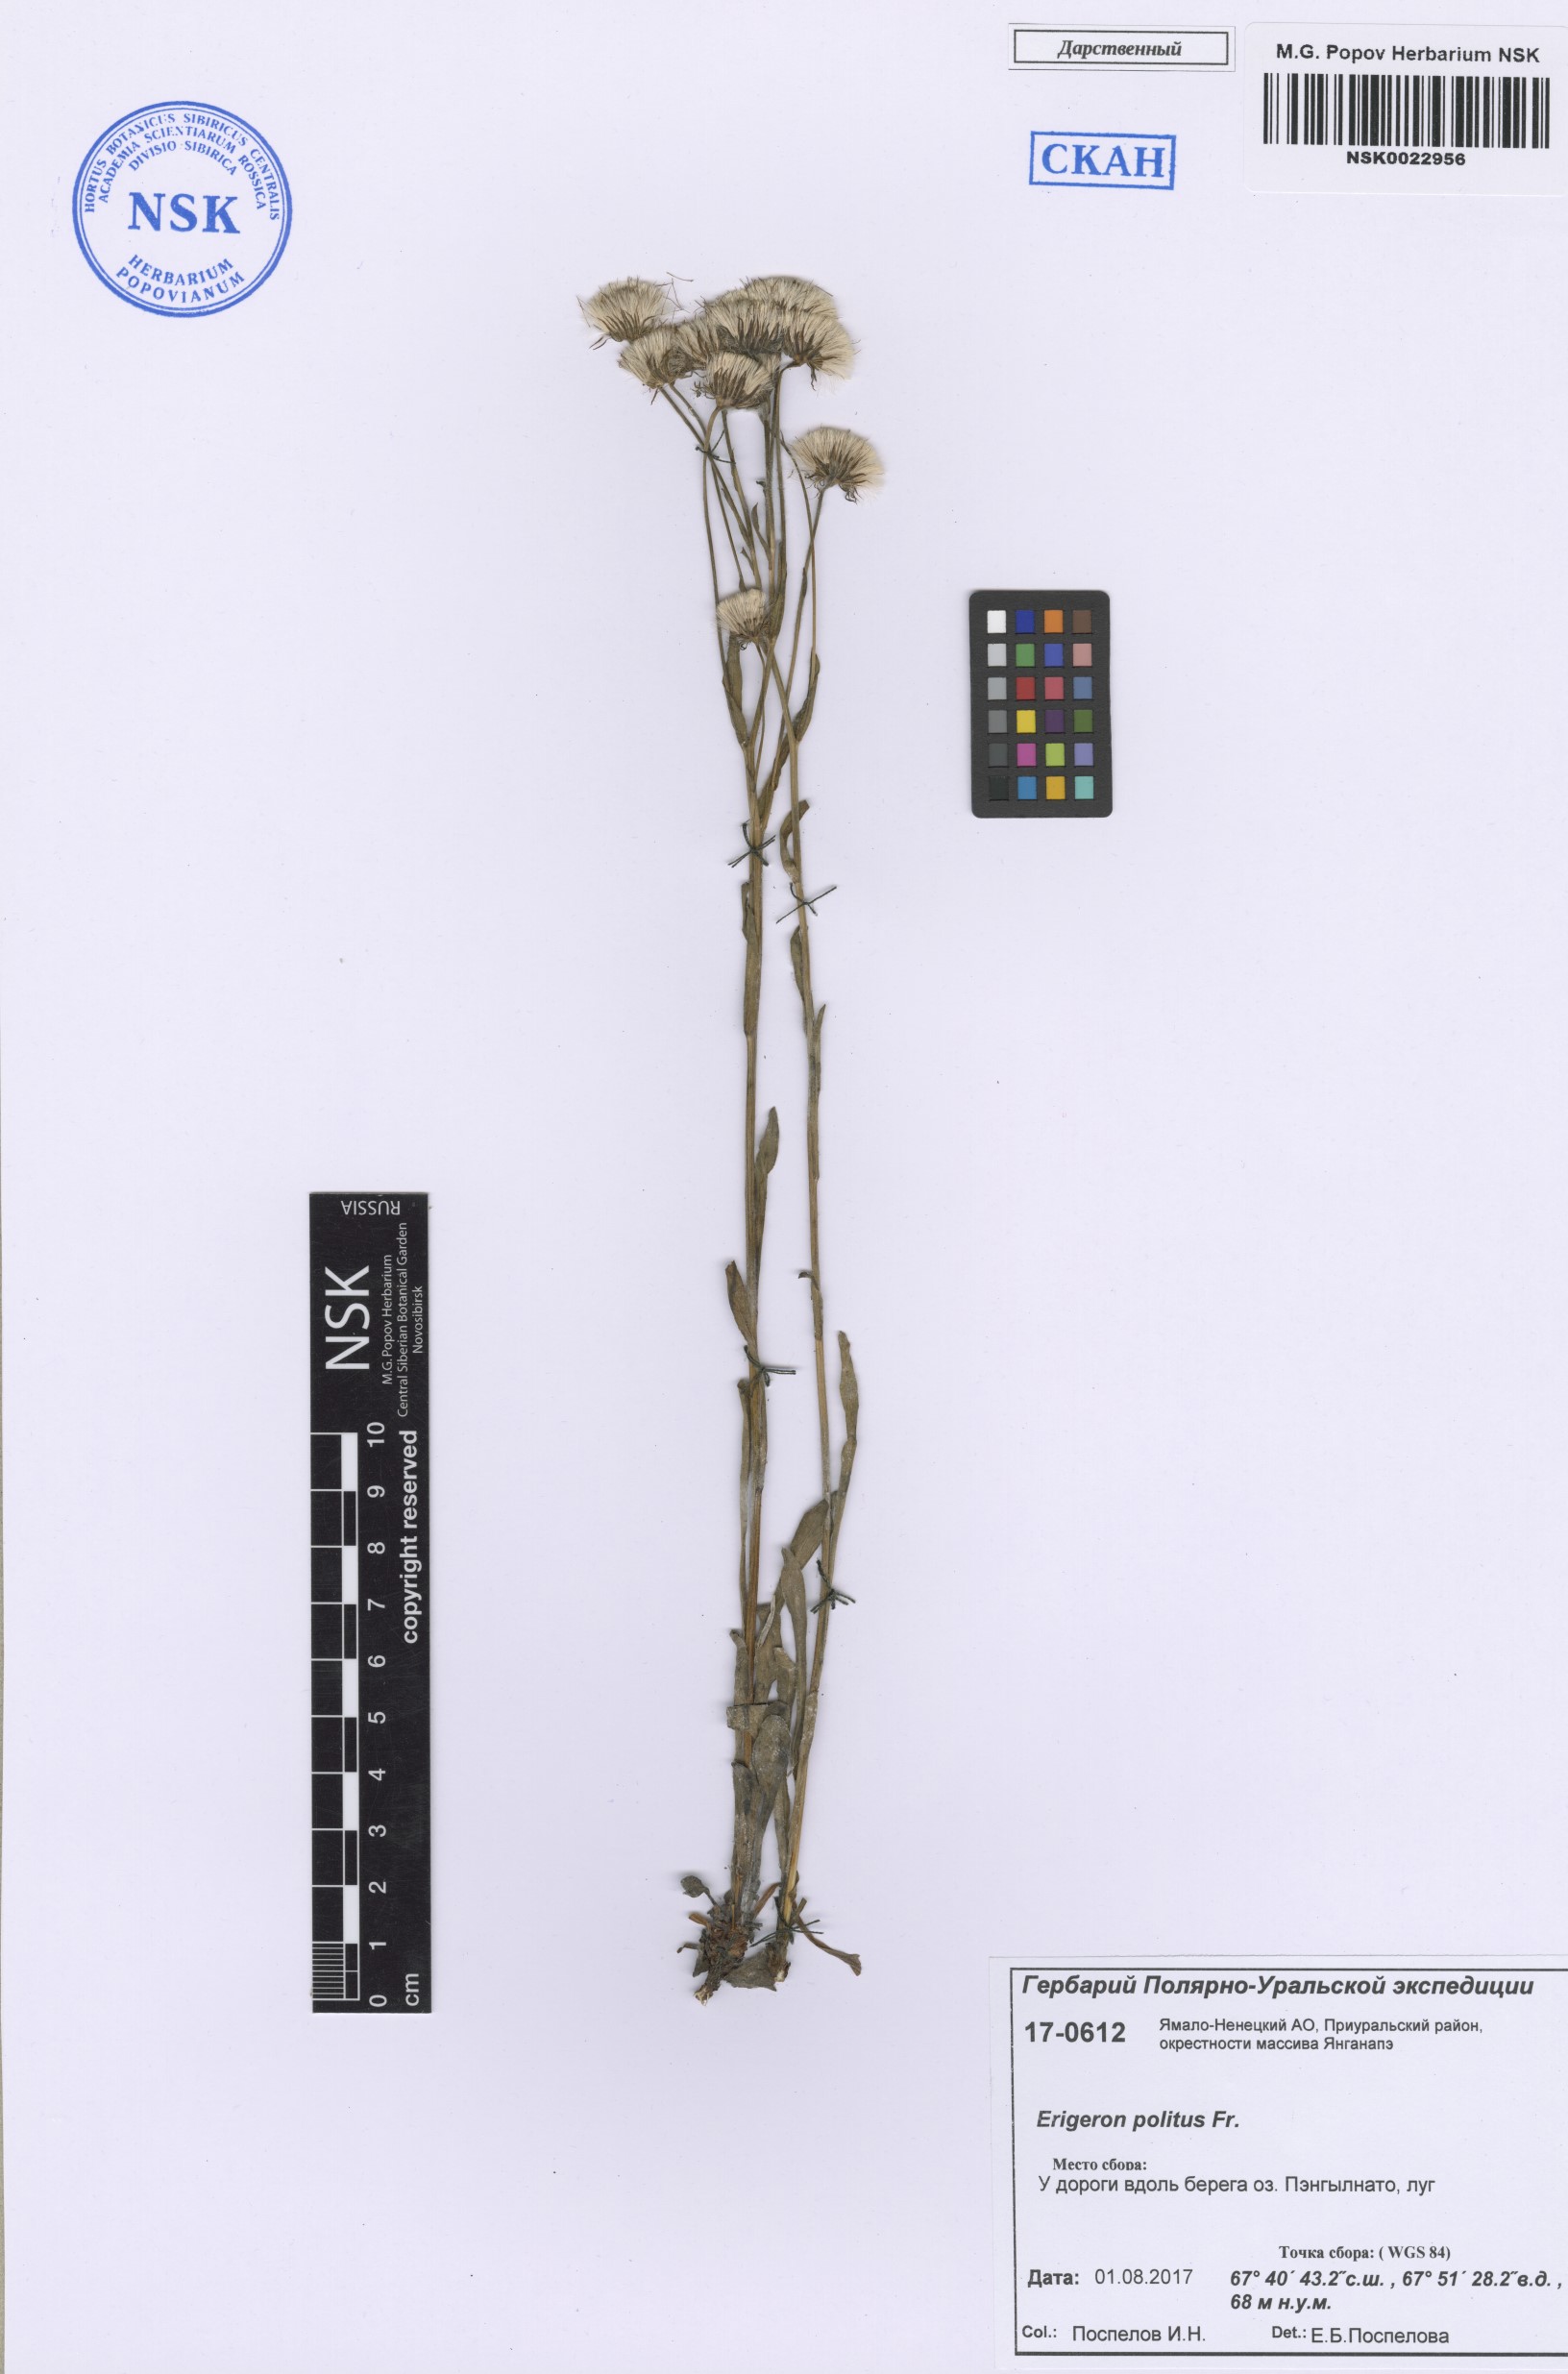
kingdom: Plantae
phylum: Tracheophyta
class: Magnoliopsida
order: Asterales
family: Asteraceae
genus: Erigeron
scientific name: Erigeron politus
